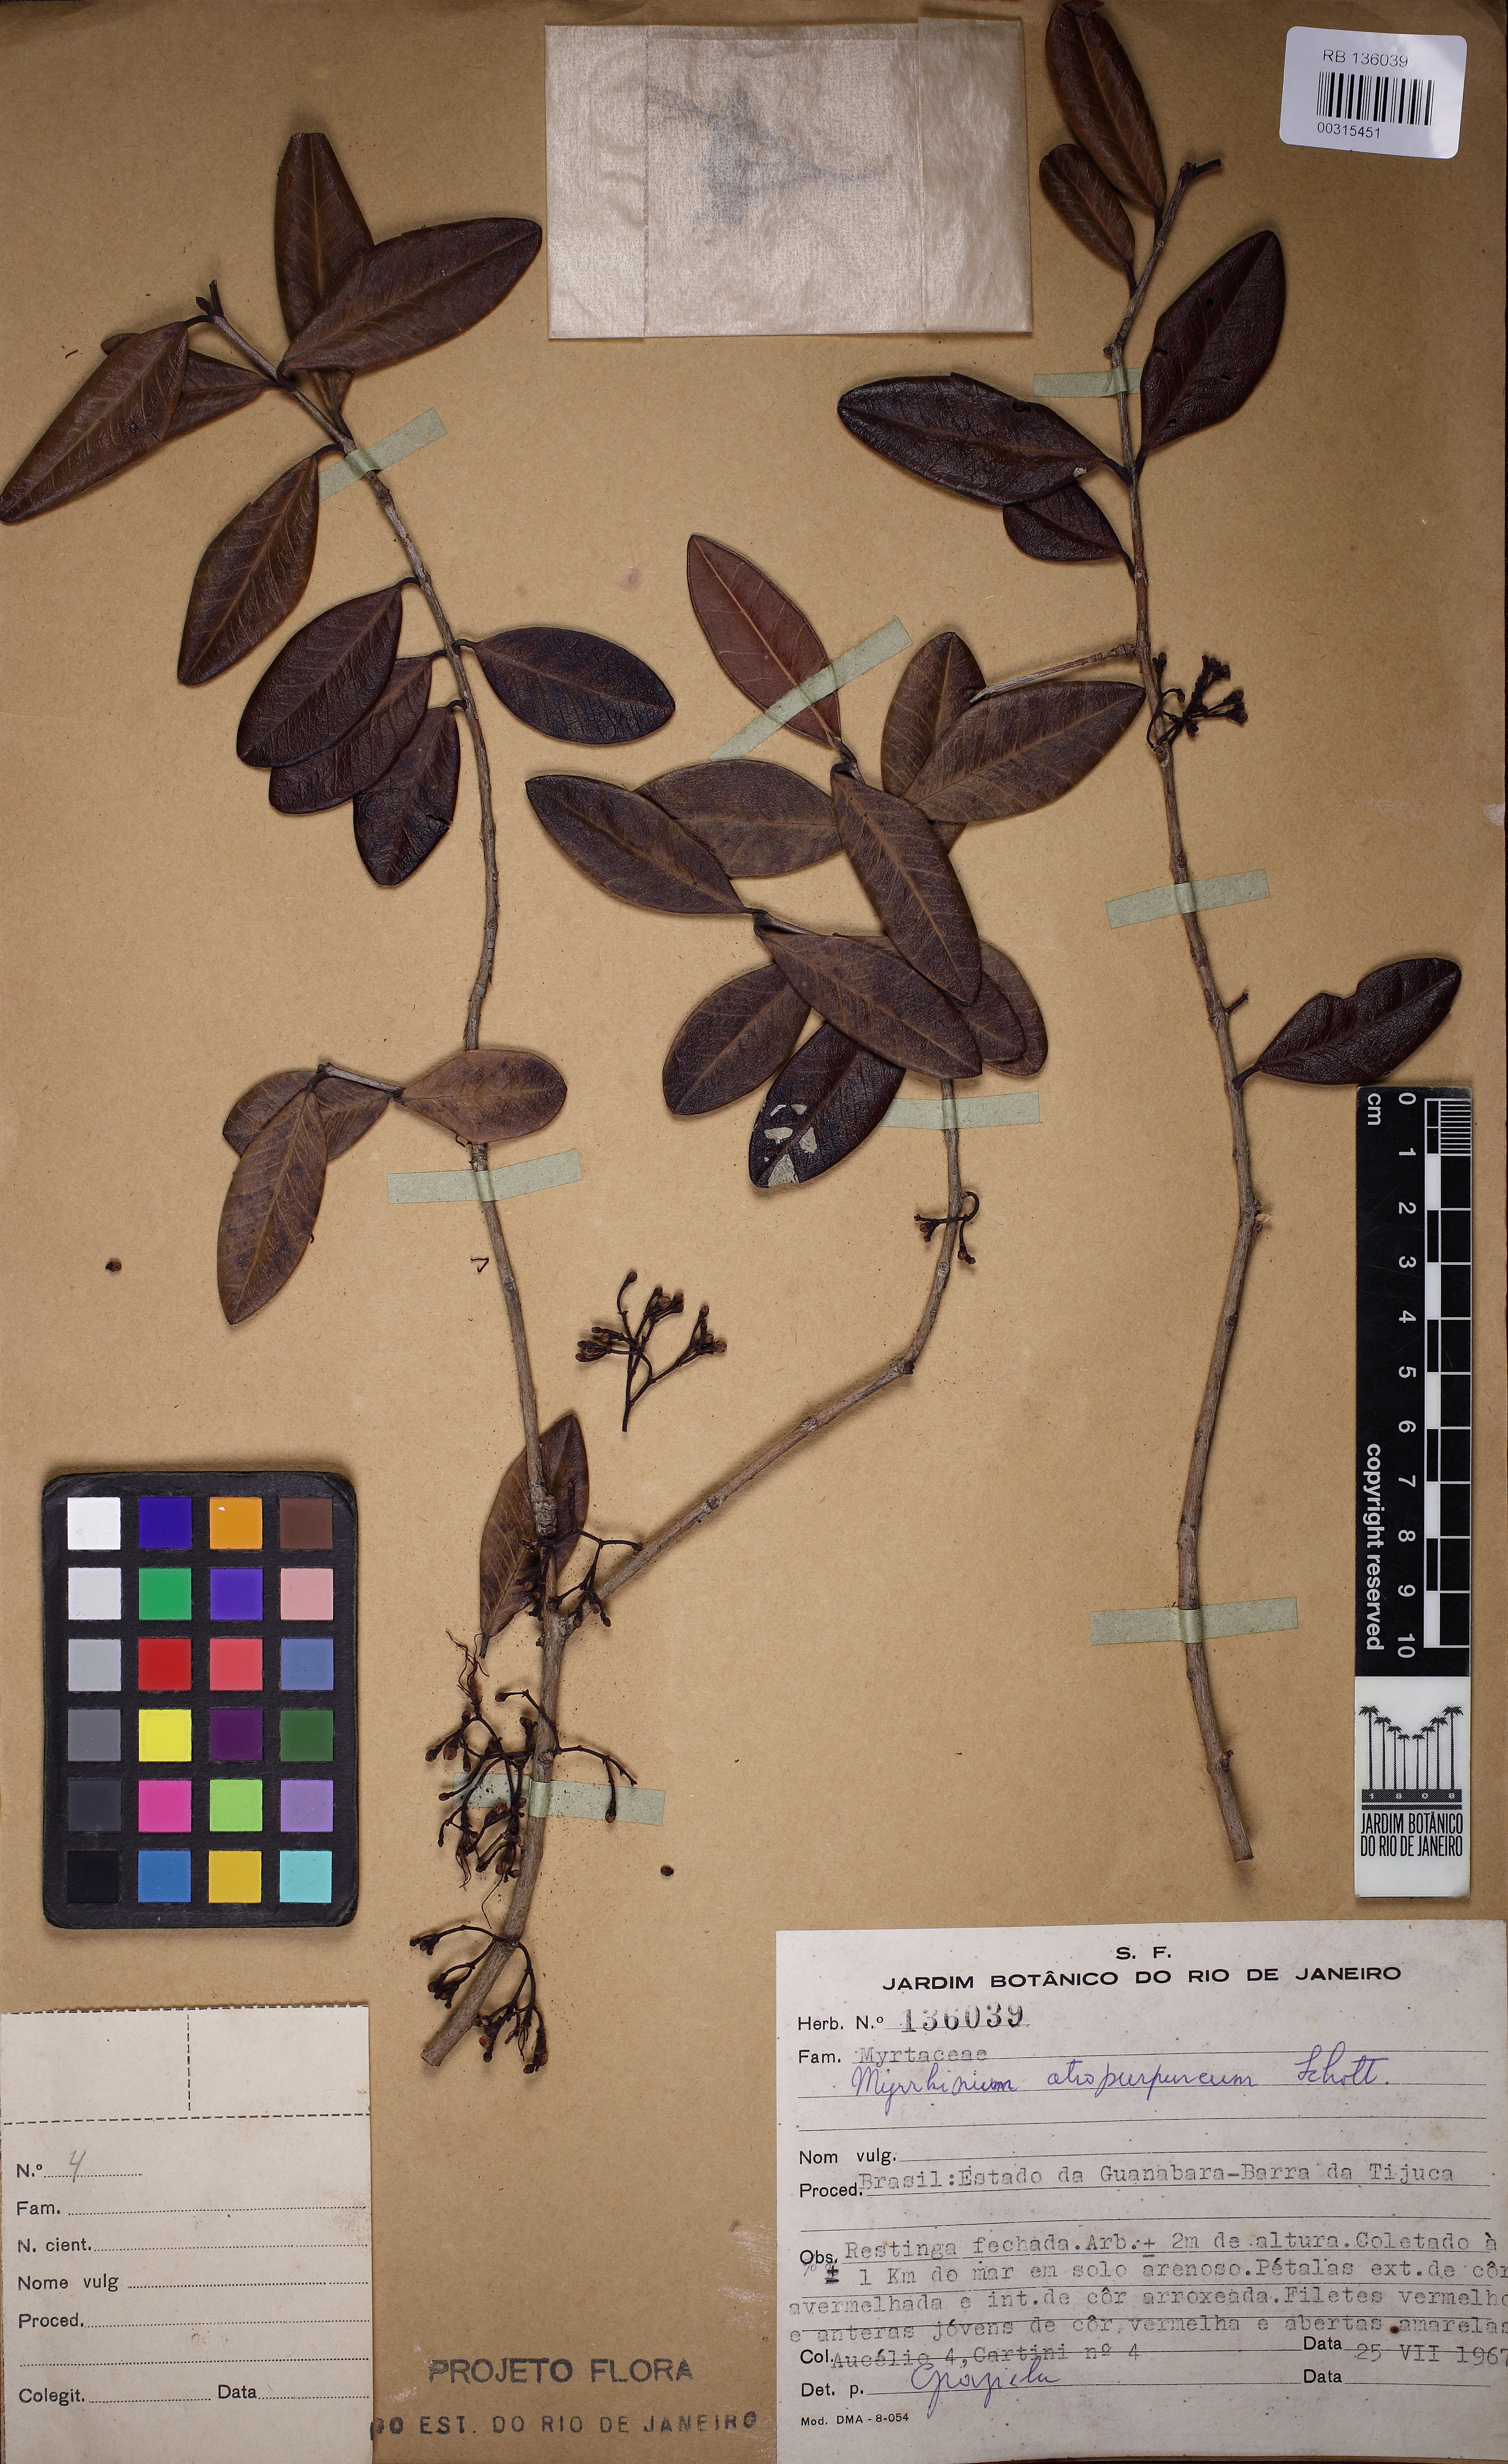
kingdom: Plantae
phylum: Tracheophyta
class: Magnoliopsida
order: Myrtales
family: Myrtaceae
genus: Myrrhinium
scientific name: Myrrhinium atropurpureum
